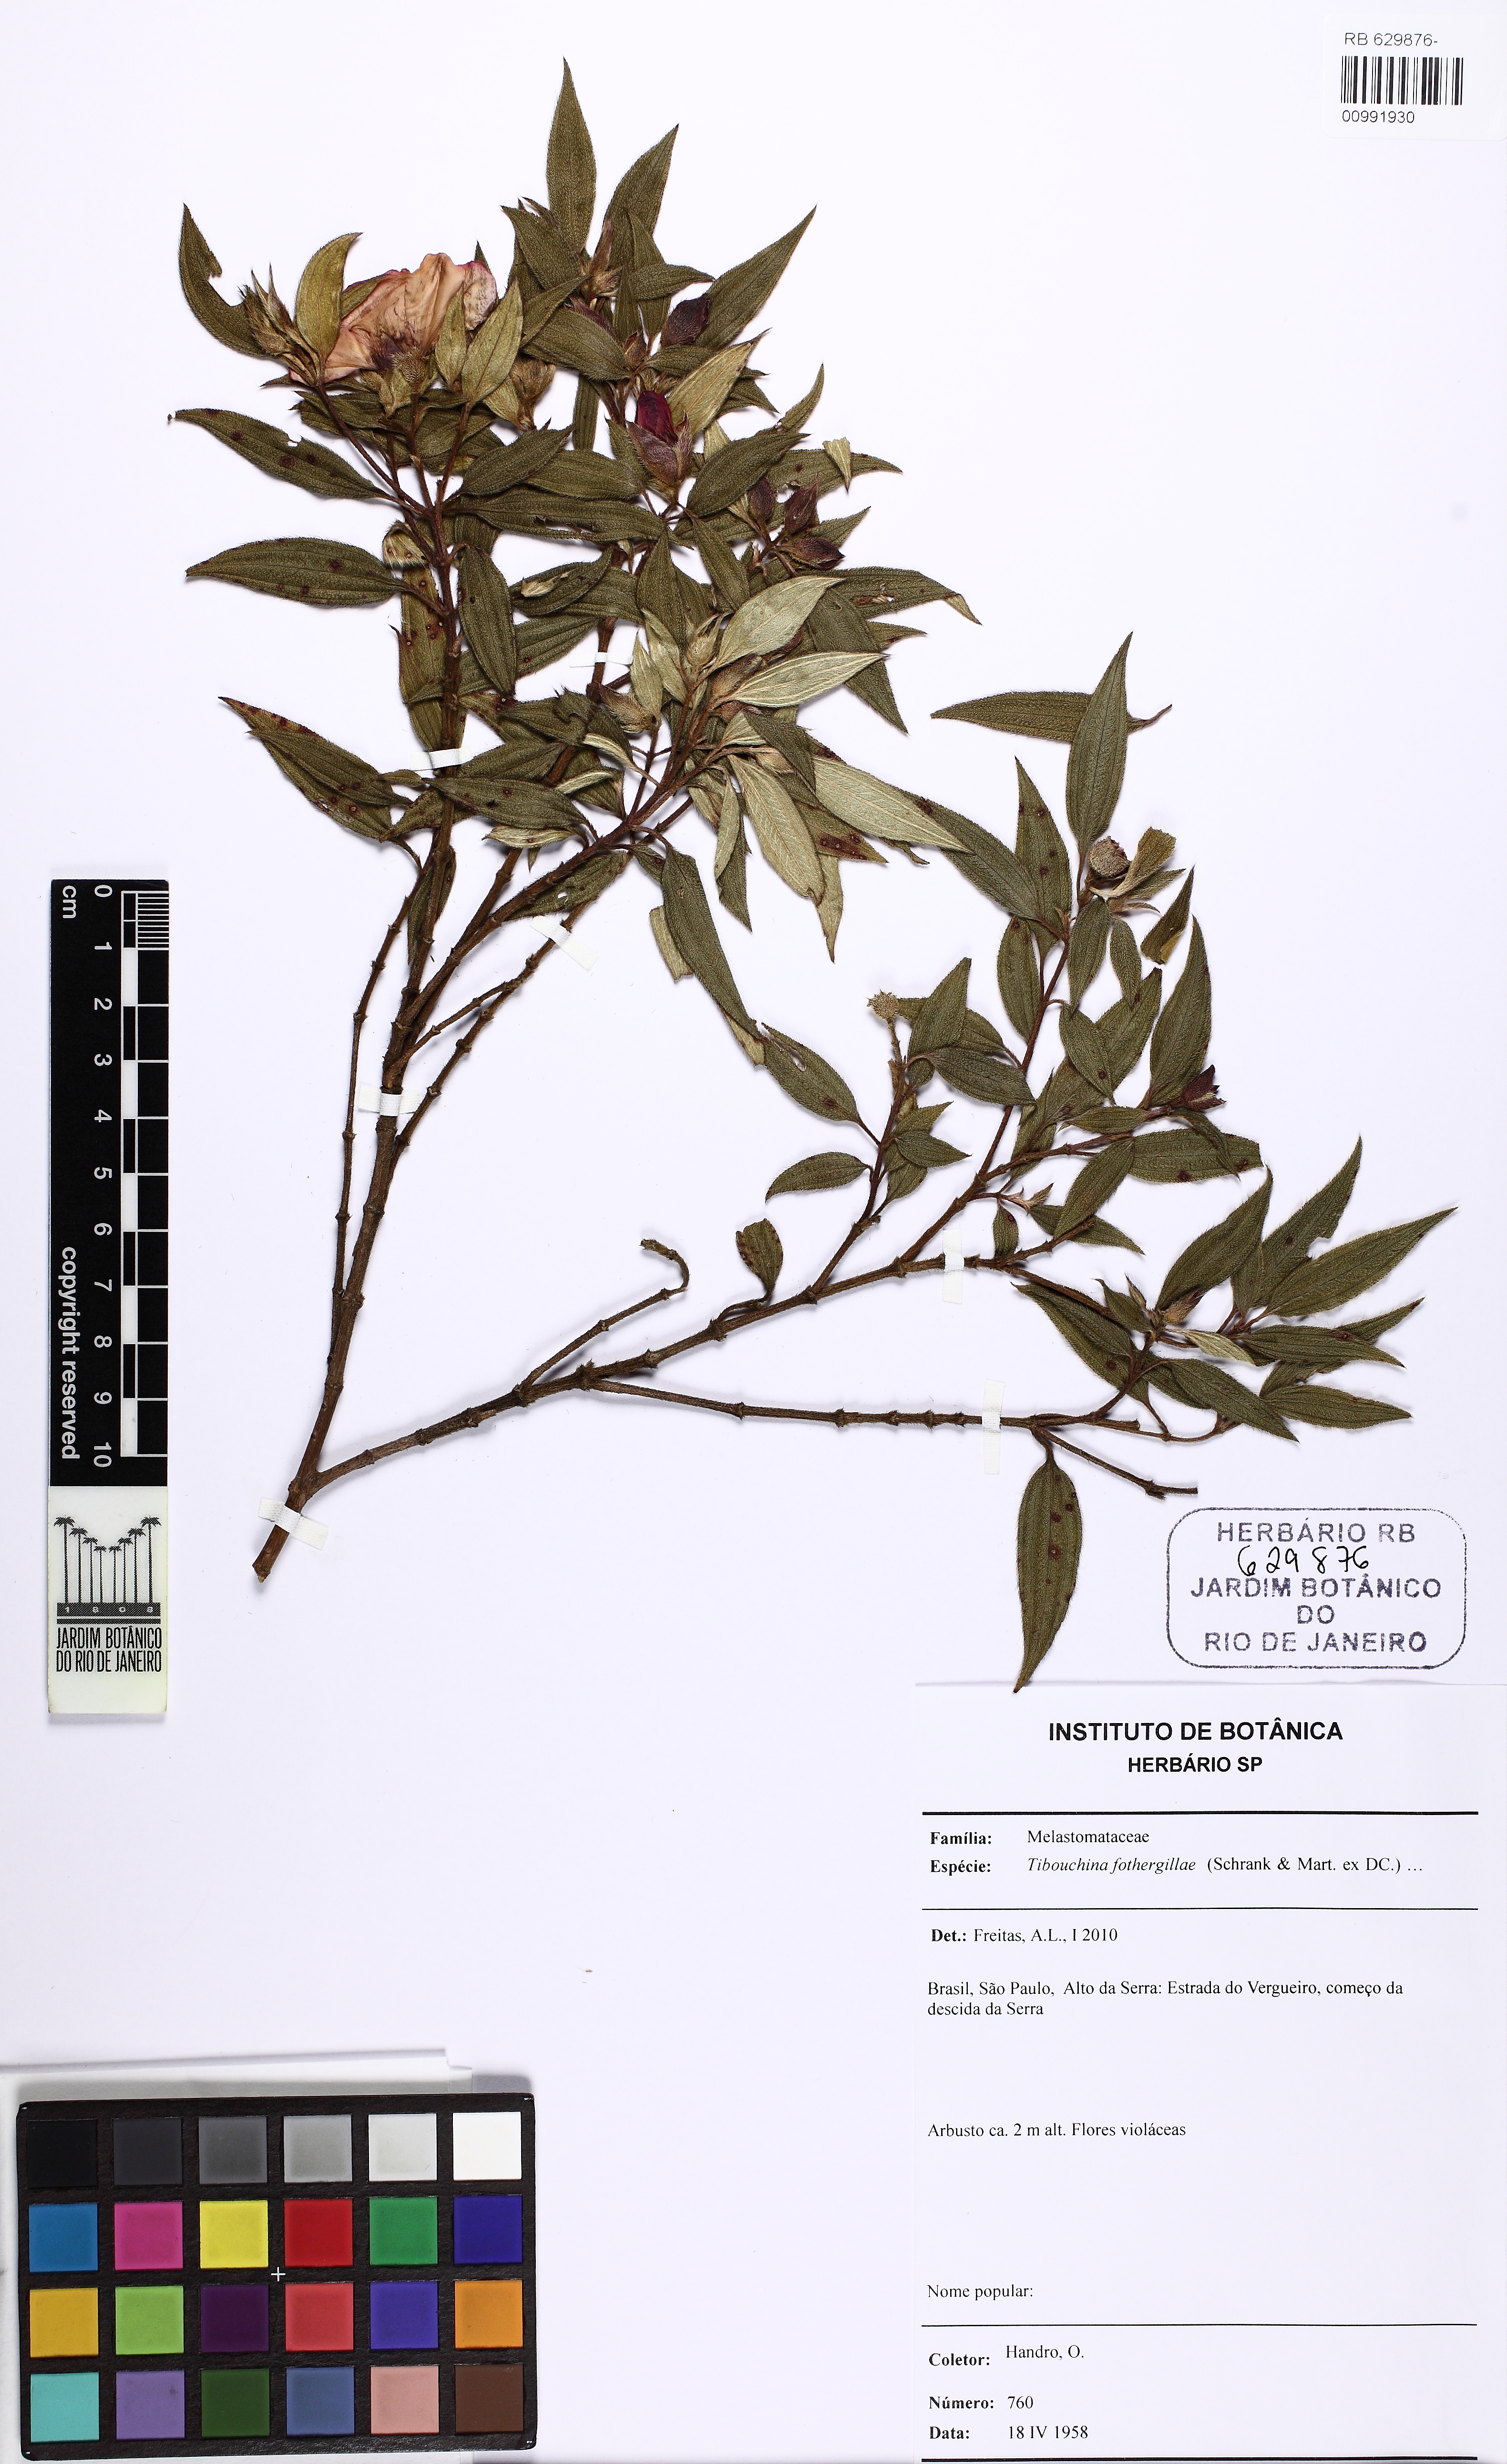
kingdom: Plantae
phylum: Tracheophyta
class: Magnoliopsida
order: Myrtales
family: Melastomataceae
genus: Pleroma
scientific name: Pleroma fothergillae
